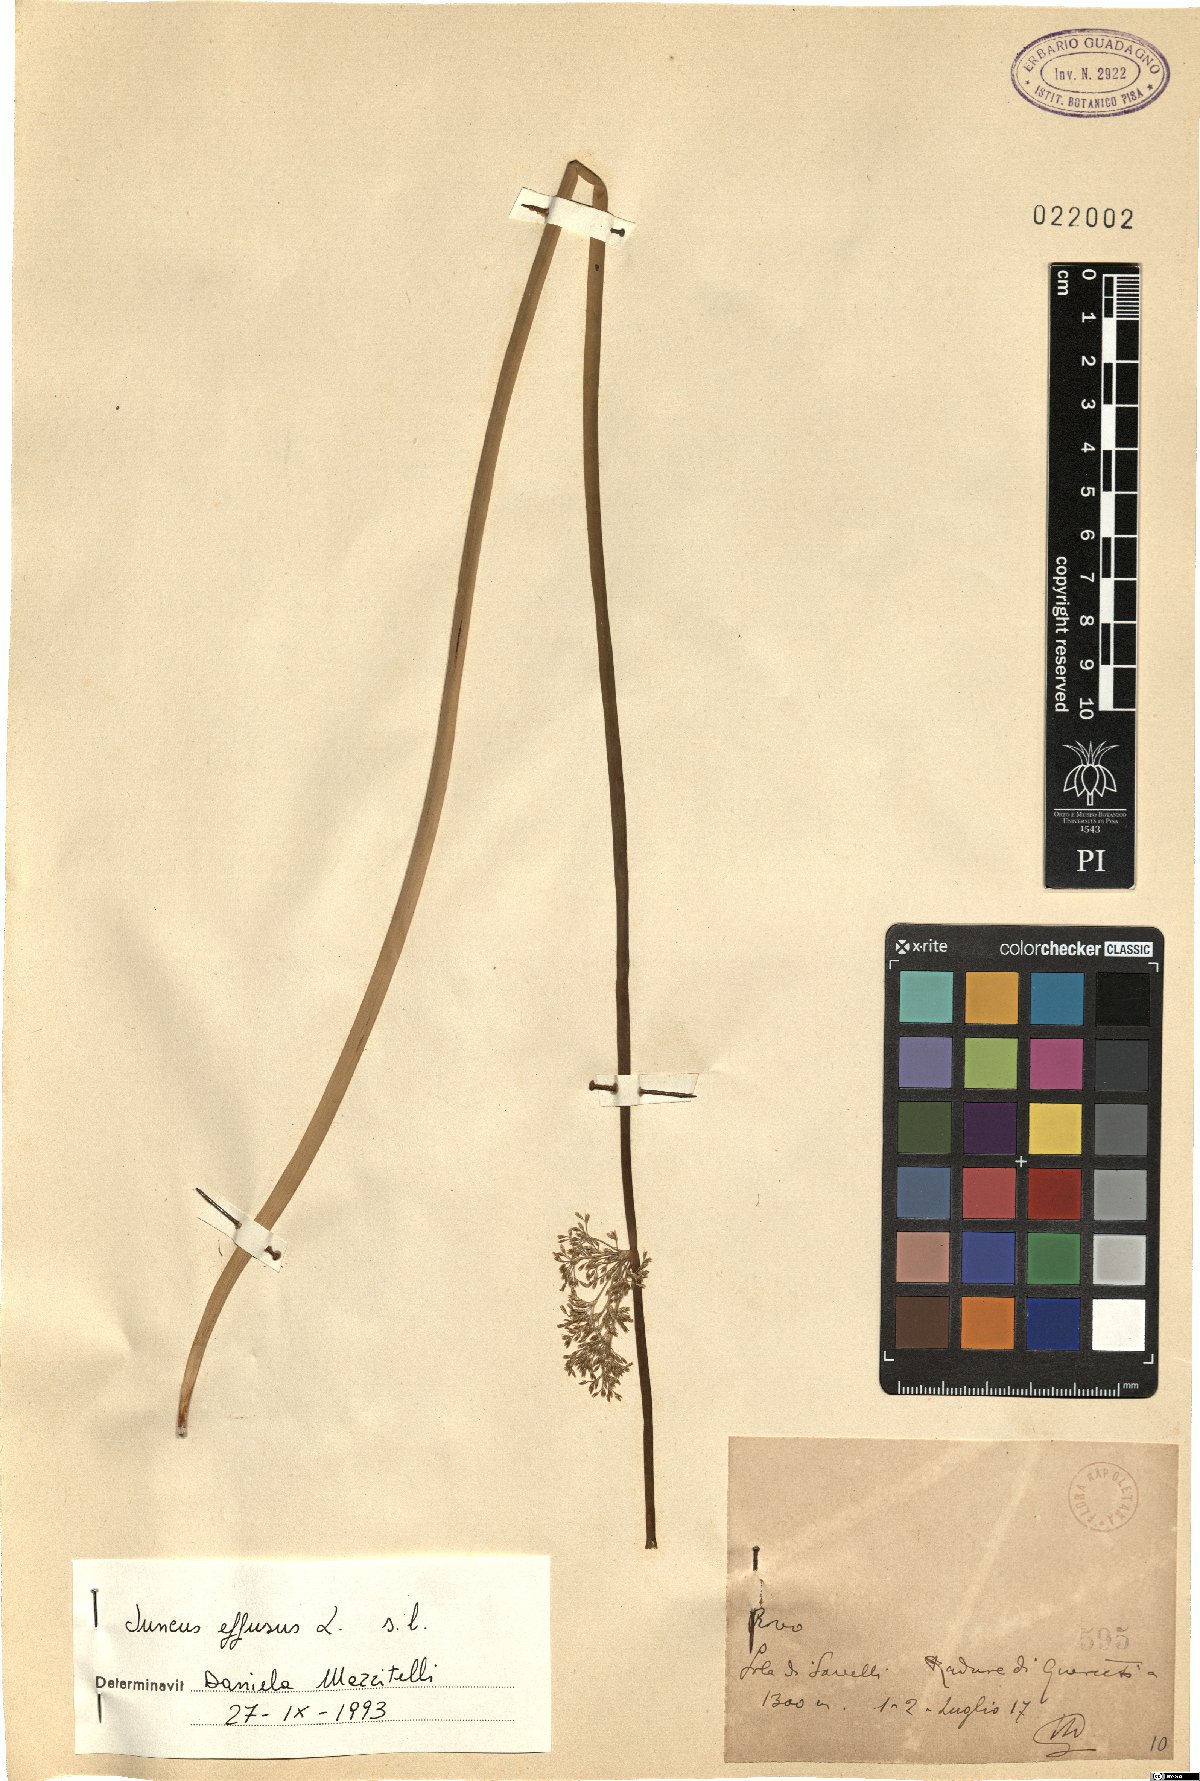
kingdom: Plantae
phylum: Tracheophyta
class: Liliopsida
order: Poales
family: Juncaceae
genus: Juncus
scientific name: Juncus effusus
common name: Soft rush
